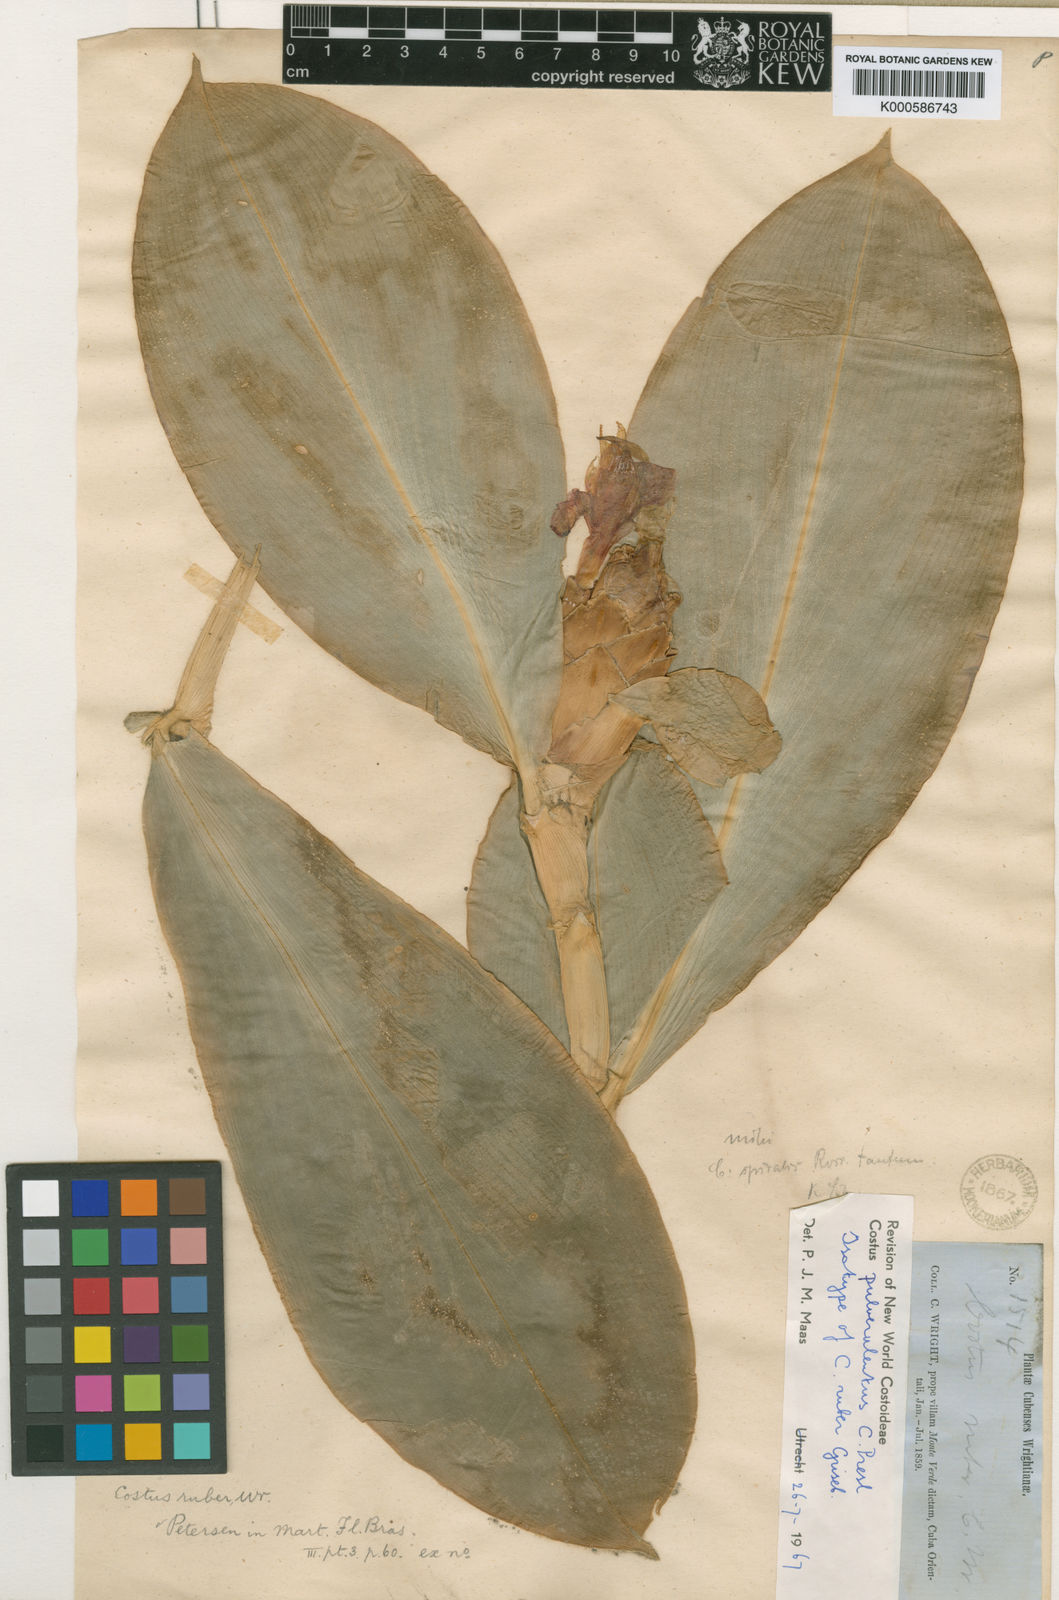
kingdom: Plantae
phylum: Tracheophyta
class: Liliopsida
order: Zingiberales
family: Costaceae
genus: Costus
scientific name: Costus pulverulentus
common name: Spiral ginger
